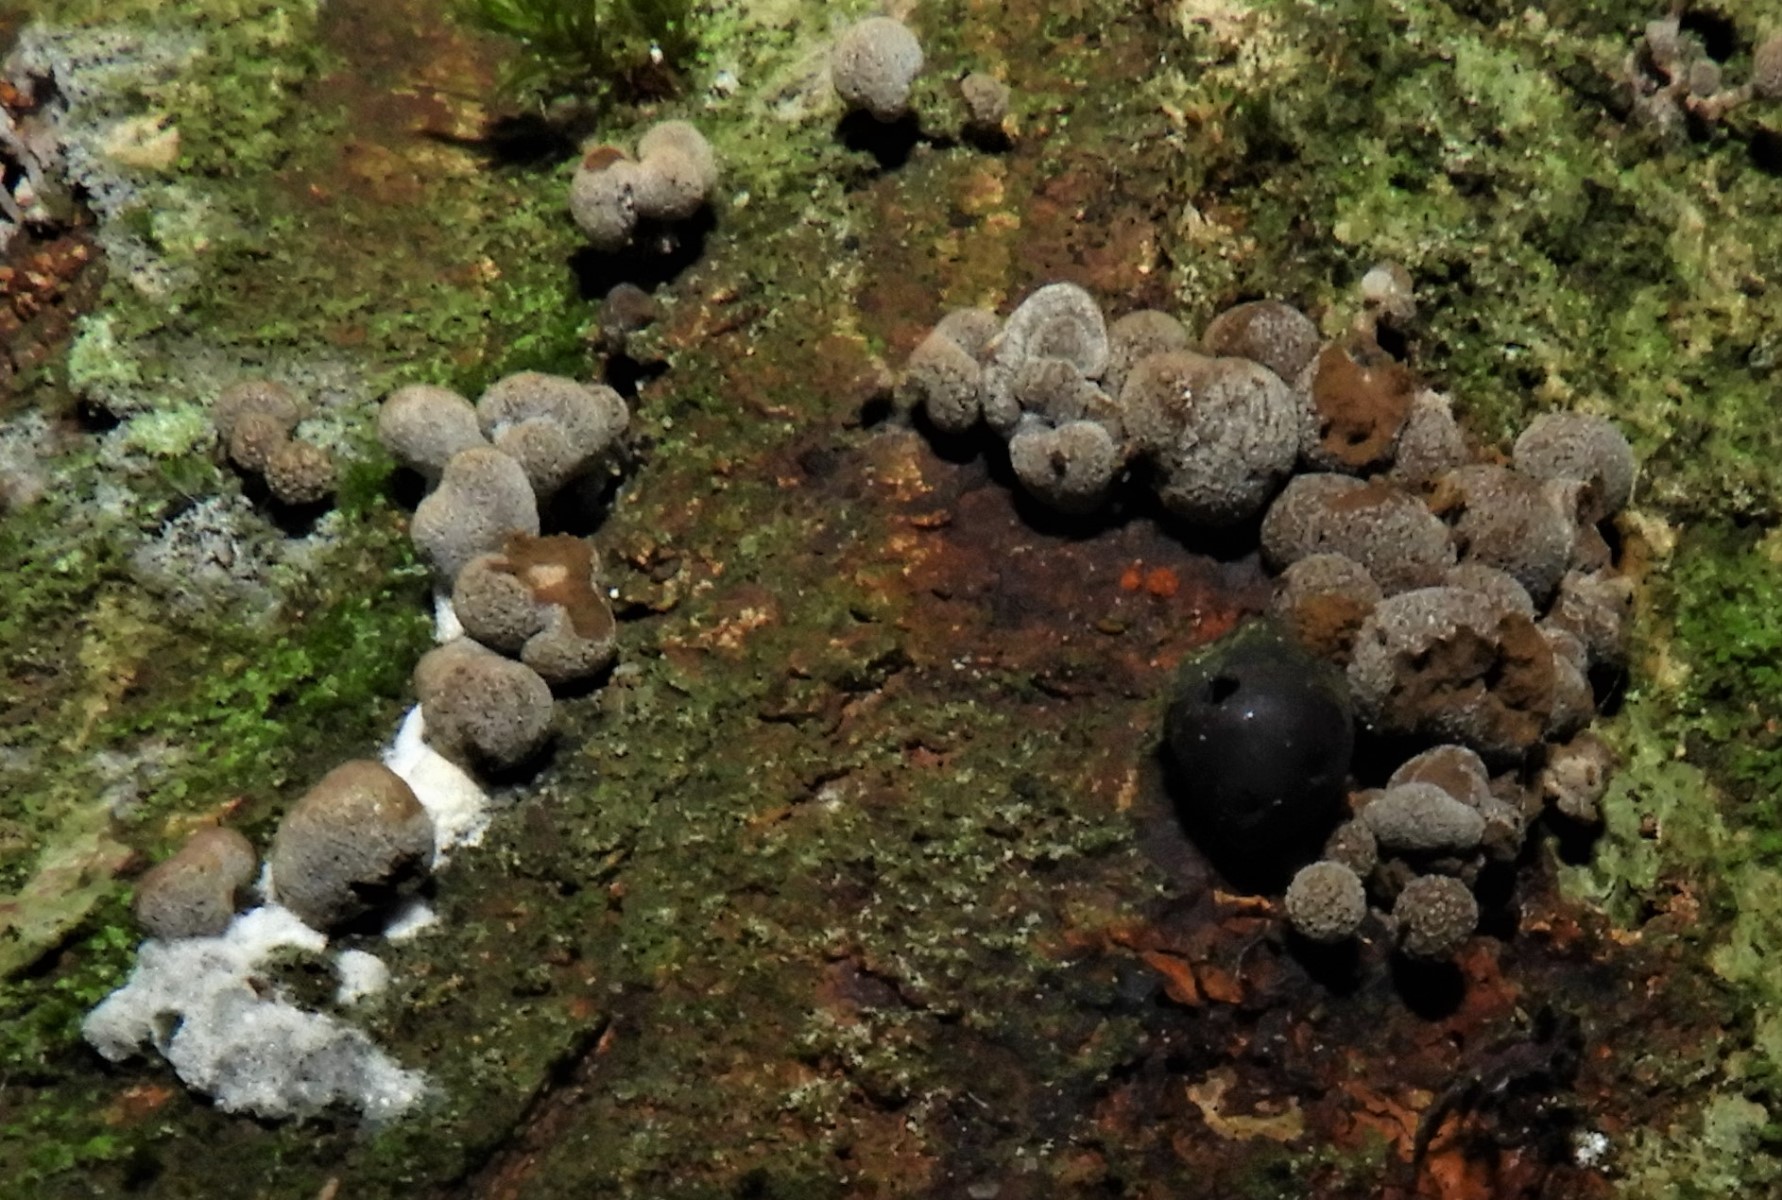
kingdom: Fungi
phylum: Basidiomycota
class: Atractiellomycetes
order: Atractiellales
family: Phleogenaceae
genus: Phleogena
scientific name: Phleogena faginea
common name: pudderkølle
